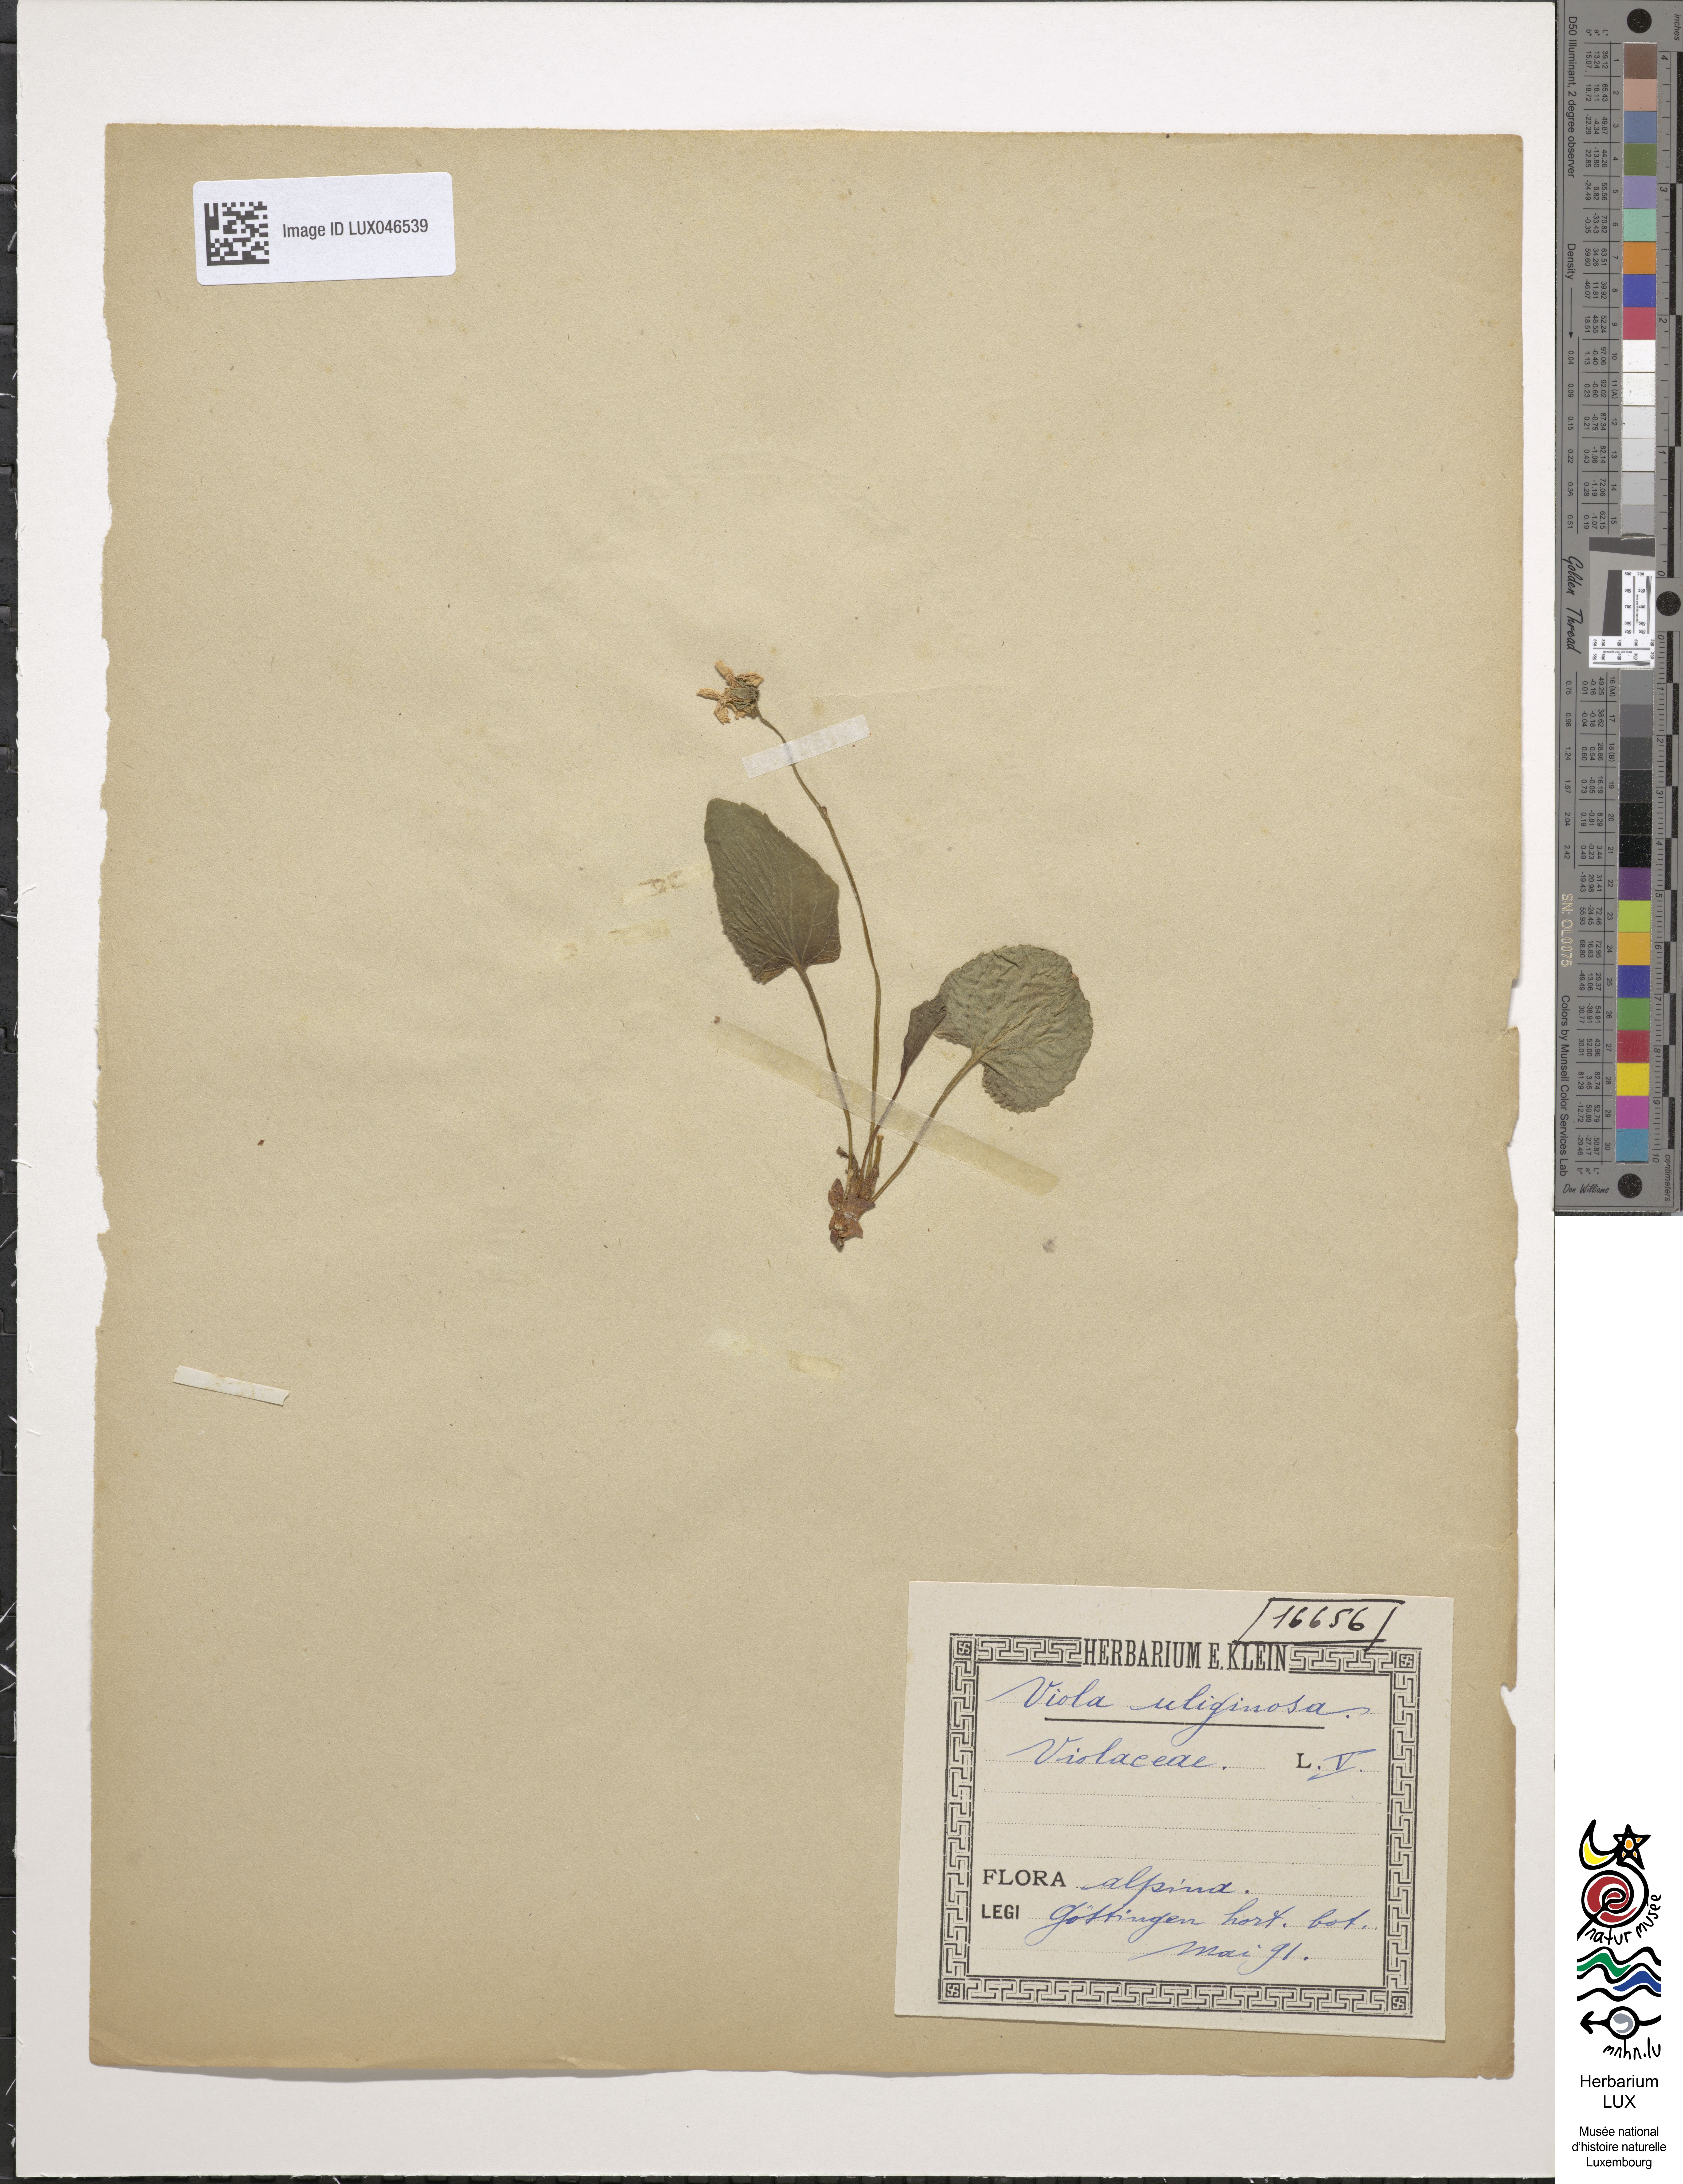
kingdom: Plantae
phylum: Tracheophyta
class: Magnoliopsida
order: Malpighiales
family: Violaceae
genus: Viola
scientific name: Viola uliginosa
